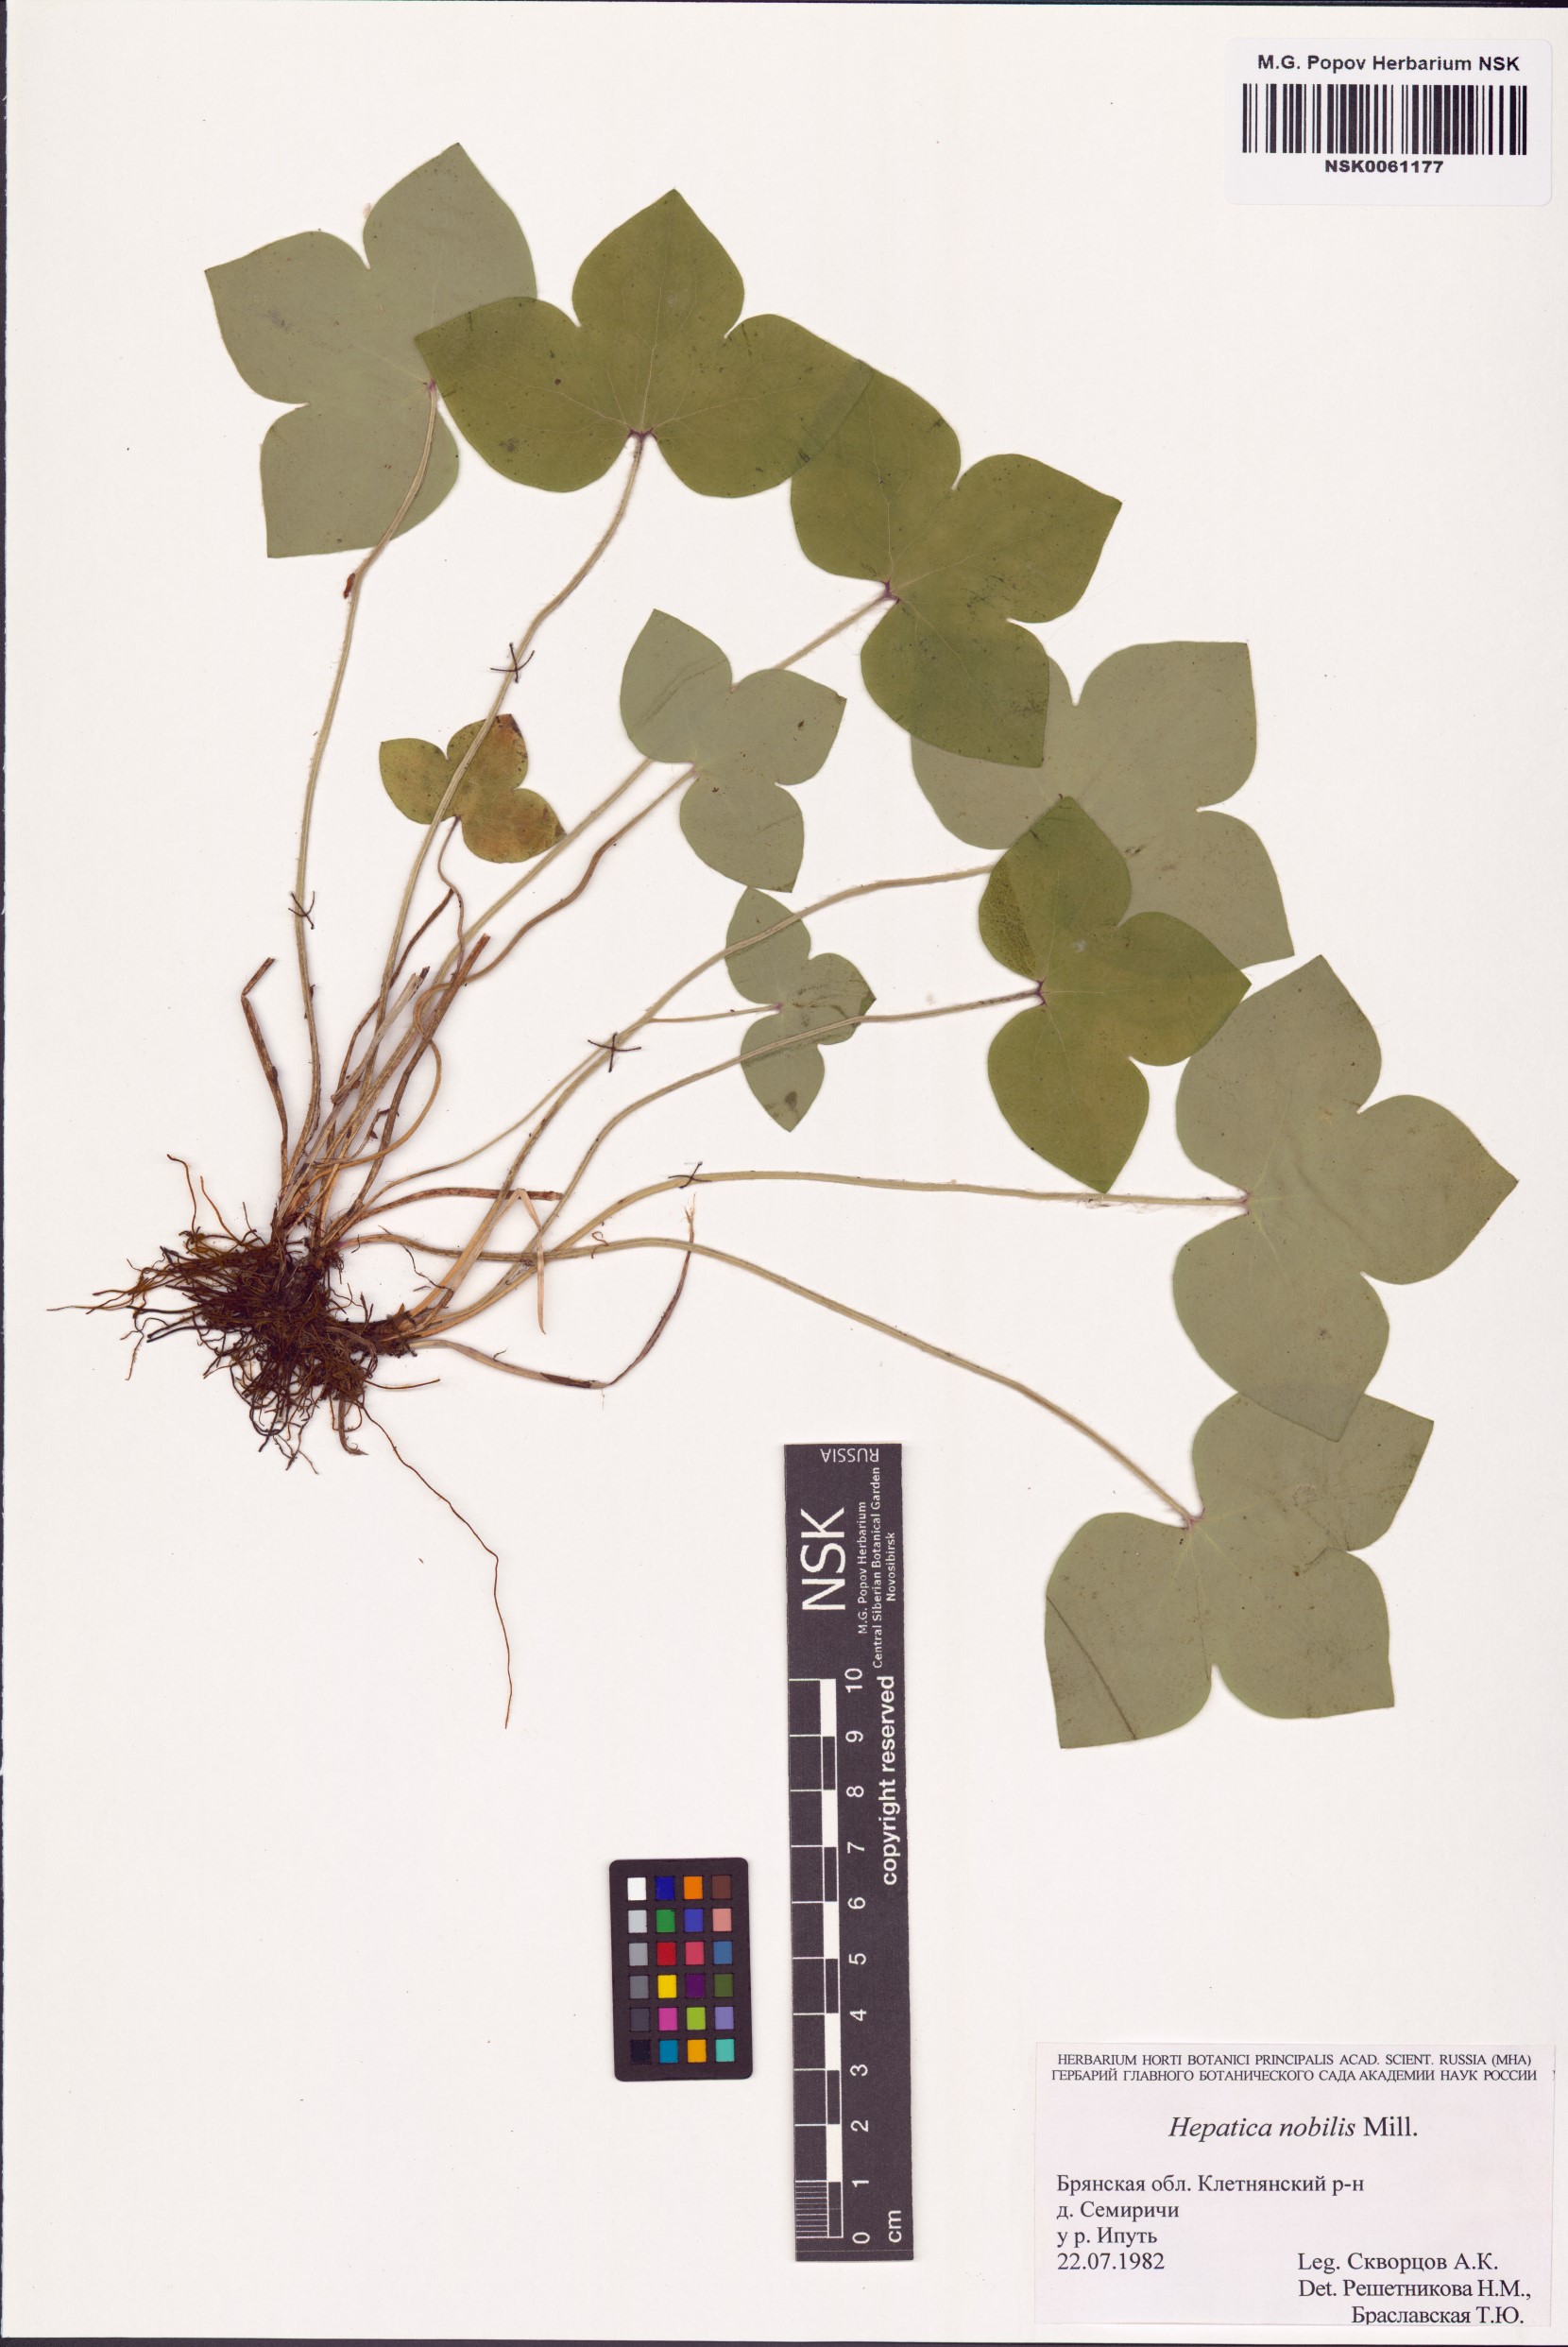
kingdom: Plantae
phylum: Tracheophyta
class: Magnoliopsida
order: Ranunculales
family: Ranunculaceae
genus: Hepatica
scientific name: Hepatica nobilis
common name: Liverleaf
